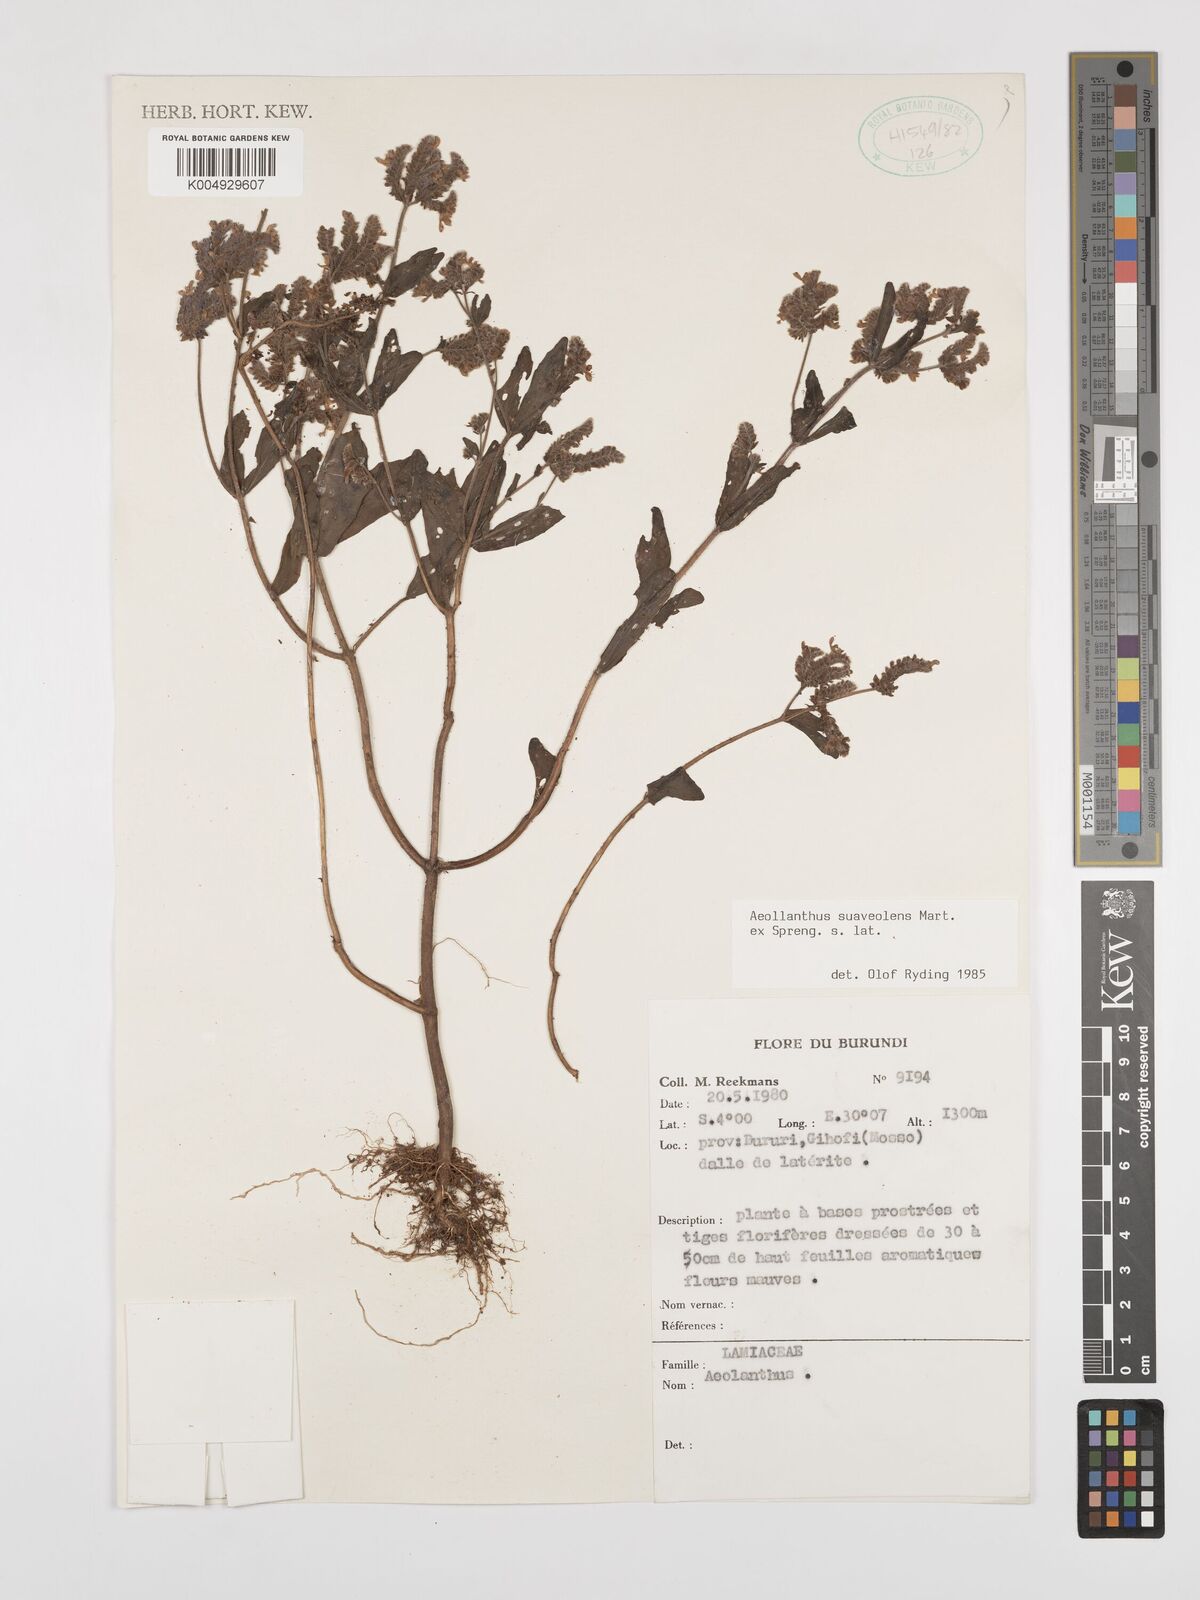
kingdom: Plantae
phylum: Tracheophyta
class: Magnoliopsida
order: Lamiales
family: Lamiaceae
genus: Aeollanthus
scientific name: Aeollanthus
